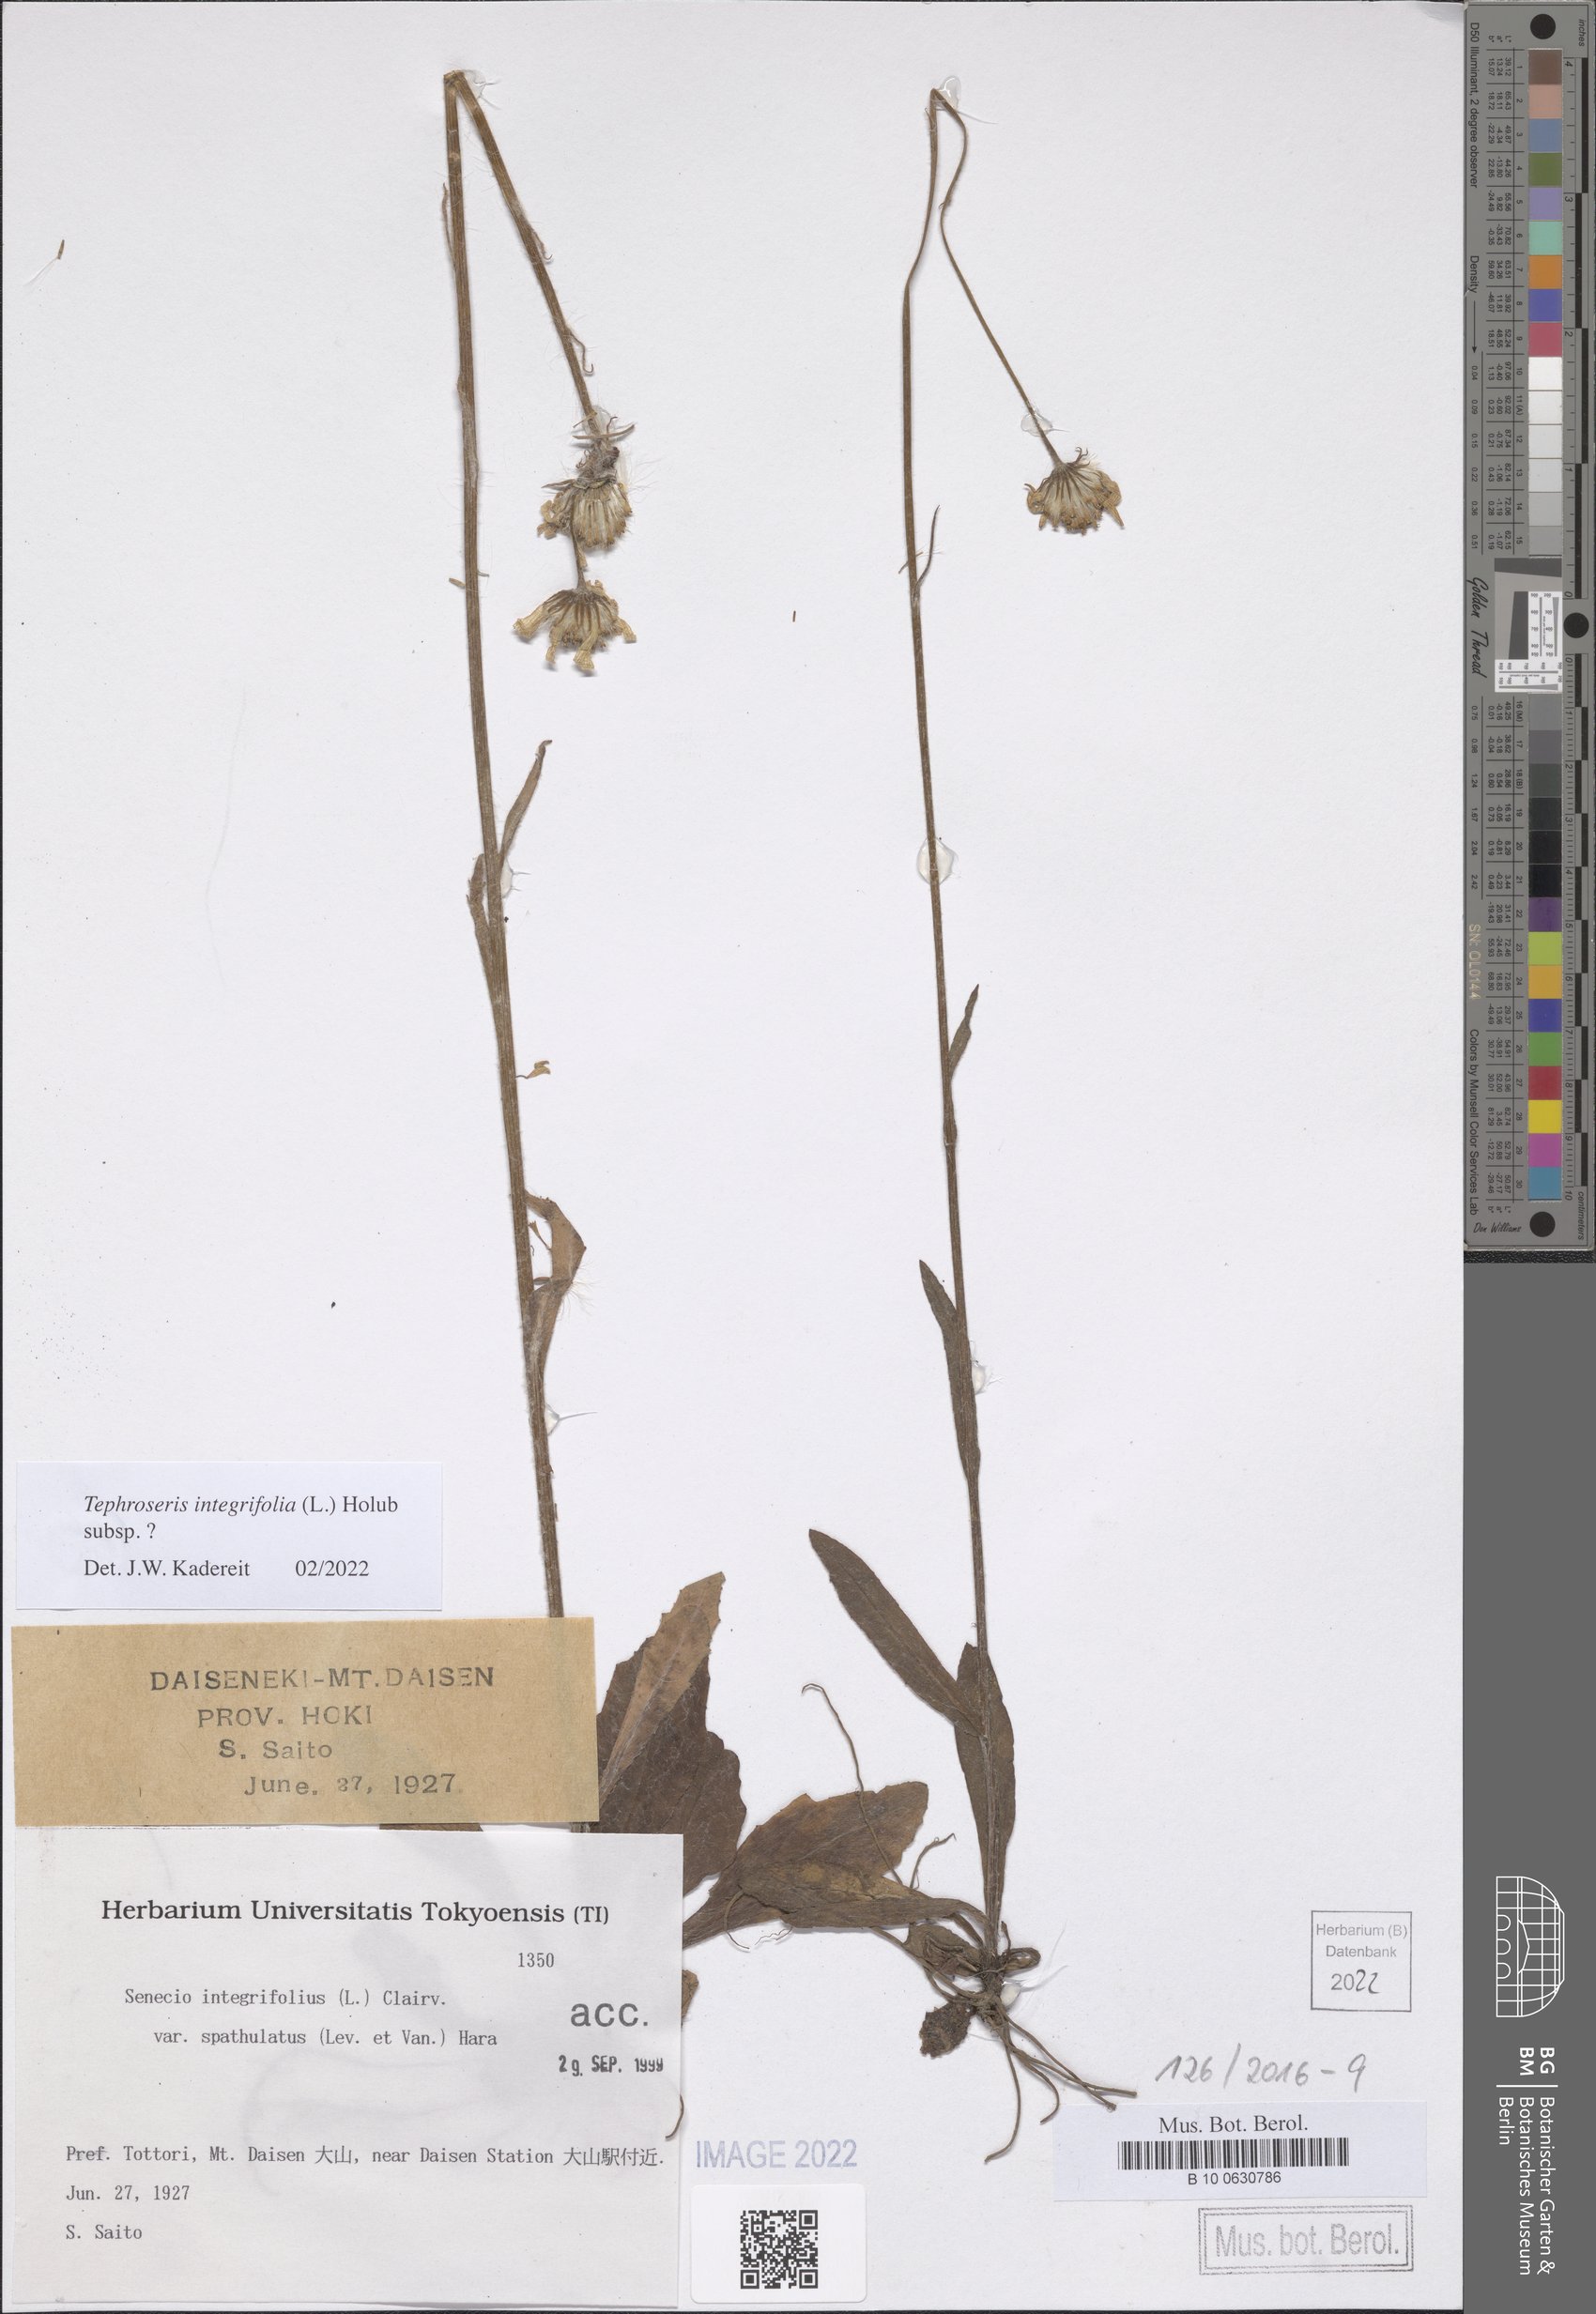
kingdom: Plantae
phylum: Tracheophyta
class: Magnoliopsida
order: Asterales
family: Asteraceae
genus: Tephroseris
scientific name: Tephroseris integrifolia
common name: Field fleawort
